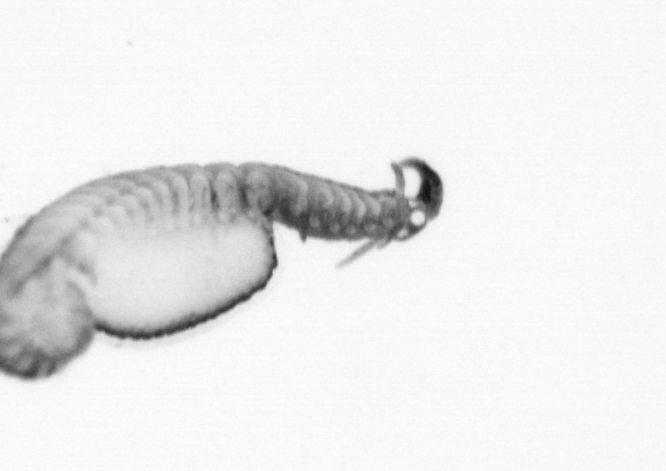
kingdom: Animalia
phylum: Annelida
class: Polychaeta
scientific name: Polychaeta
